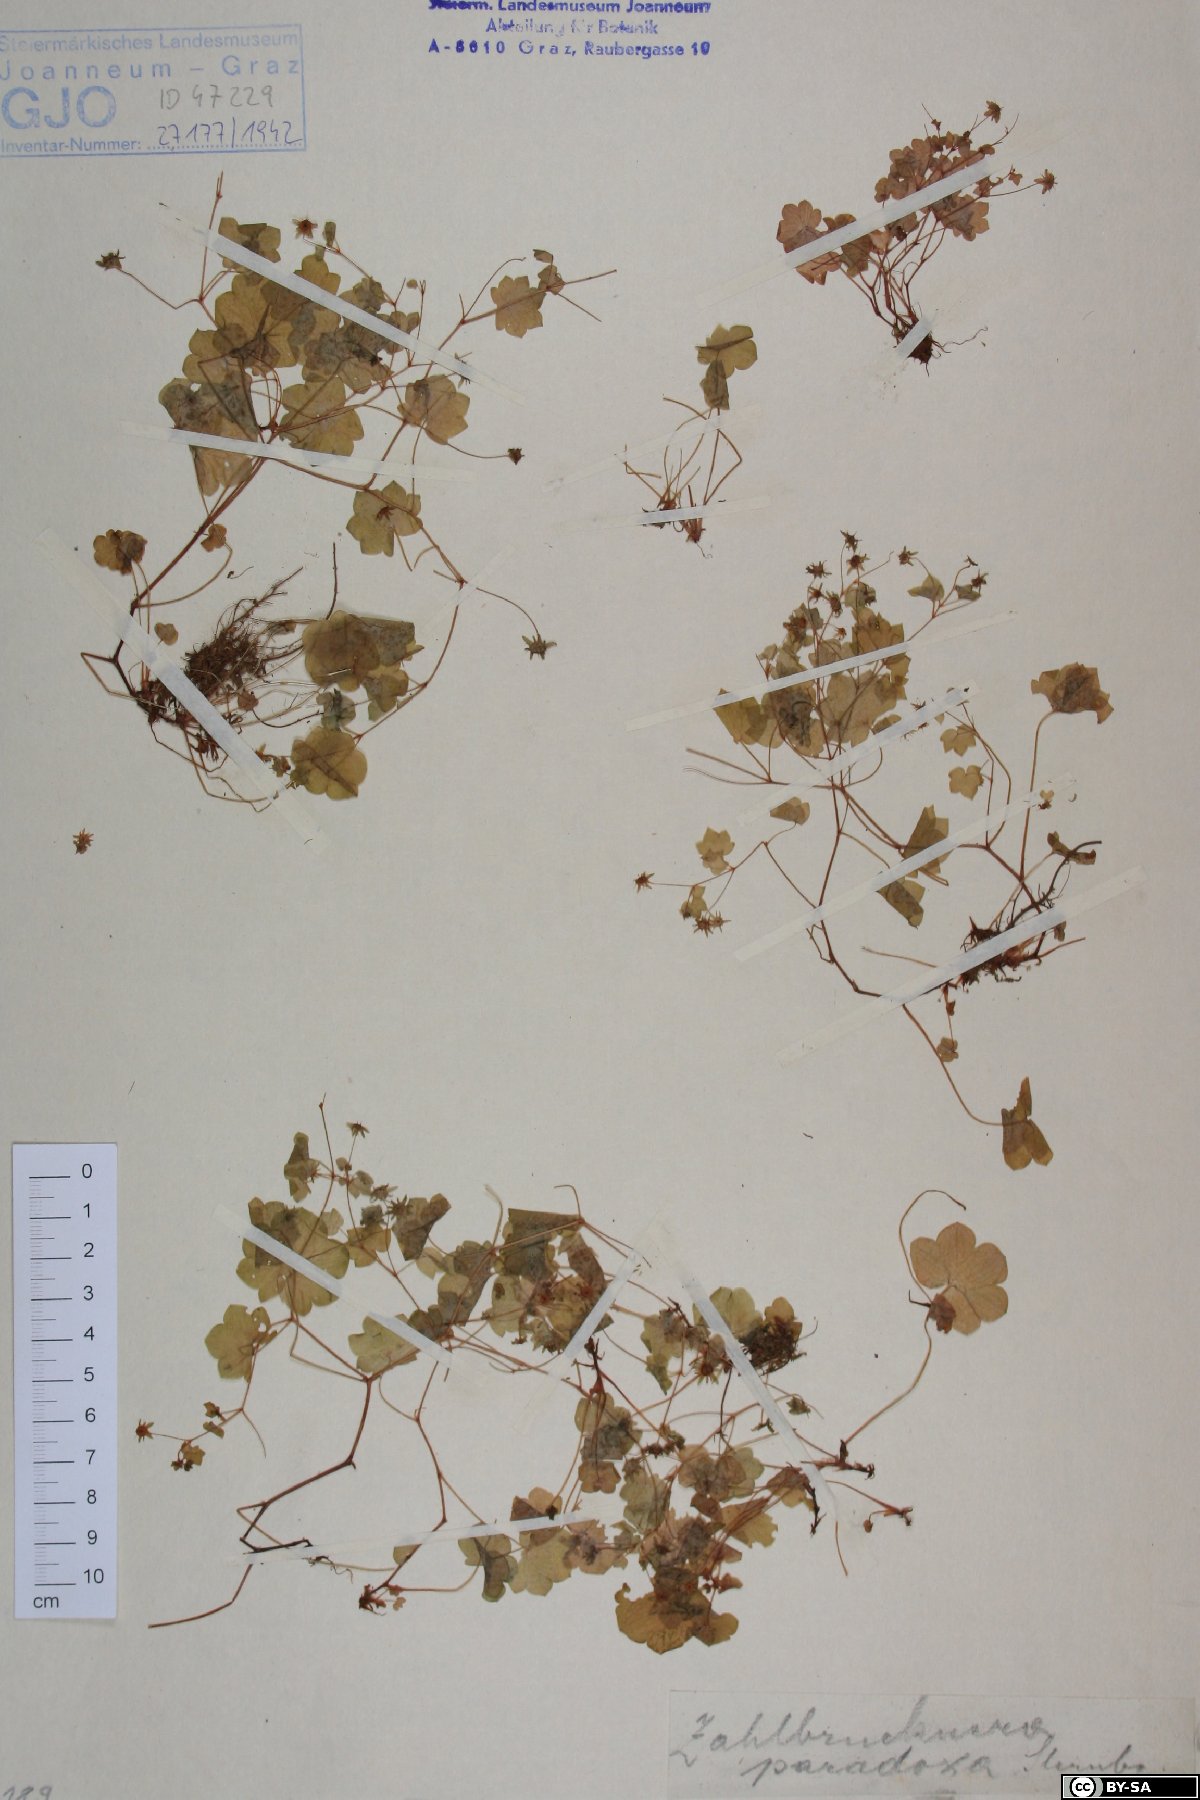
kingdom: Plantae
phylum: Tracheophyta
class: Magnoliopsida
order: Saxifragales
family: Saxifragaceae
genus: Saxifraga
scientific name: Saxifraga paradoxa
